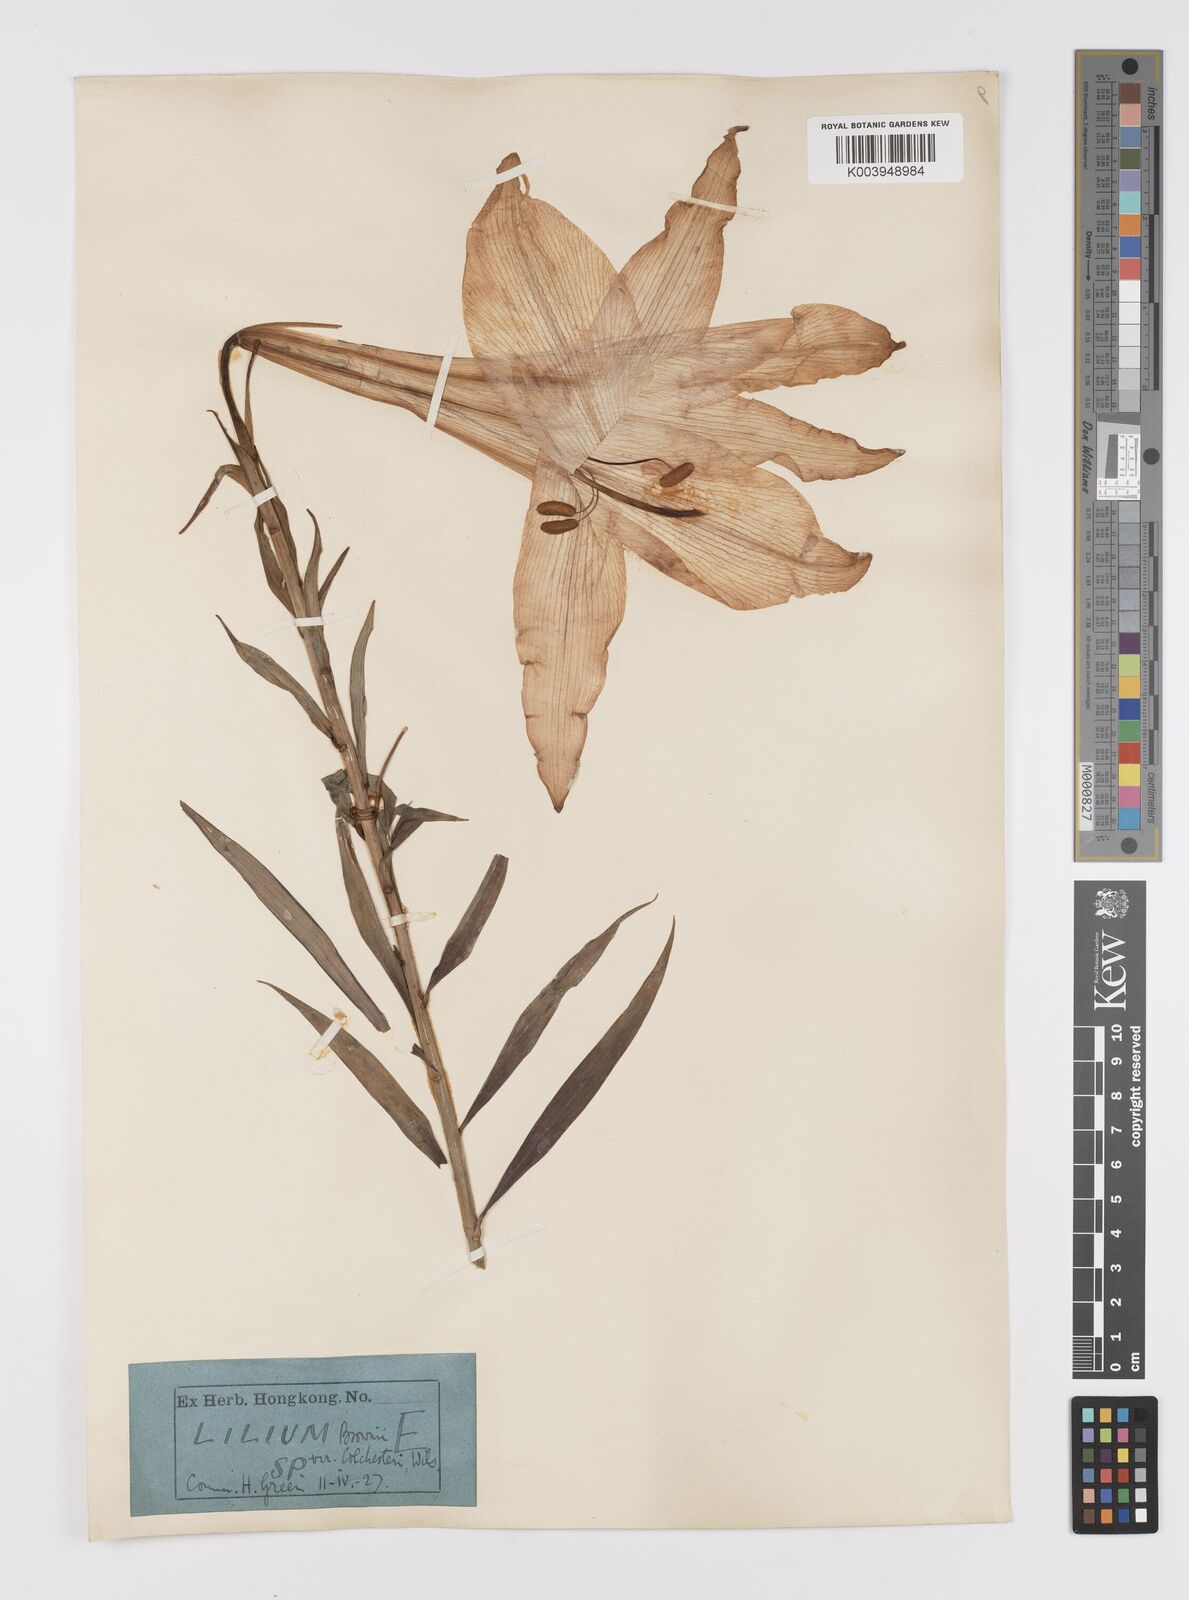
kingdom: Plantae
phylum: Tracheophyta
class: Liliopsida
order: Liliales
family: Liliaceae
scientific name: Liliaceae
